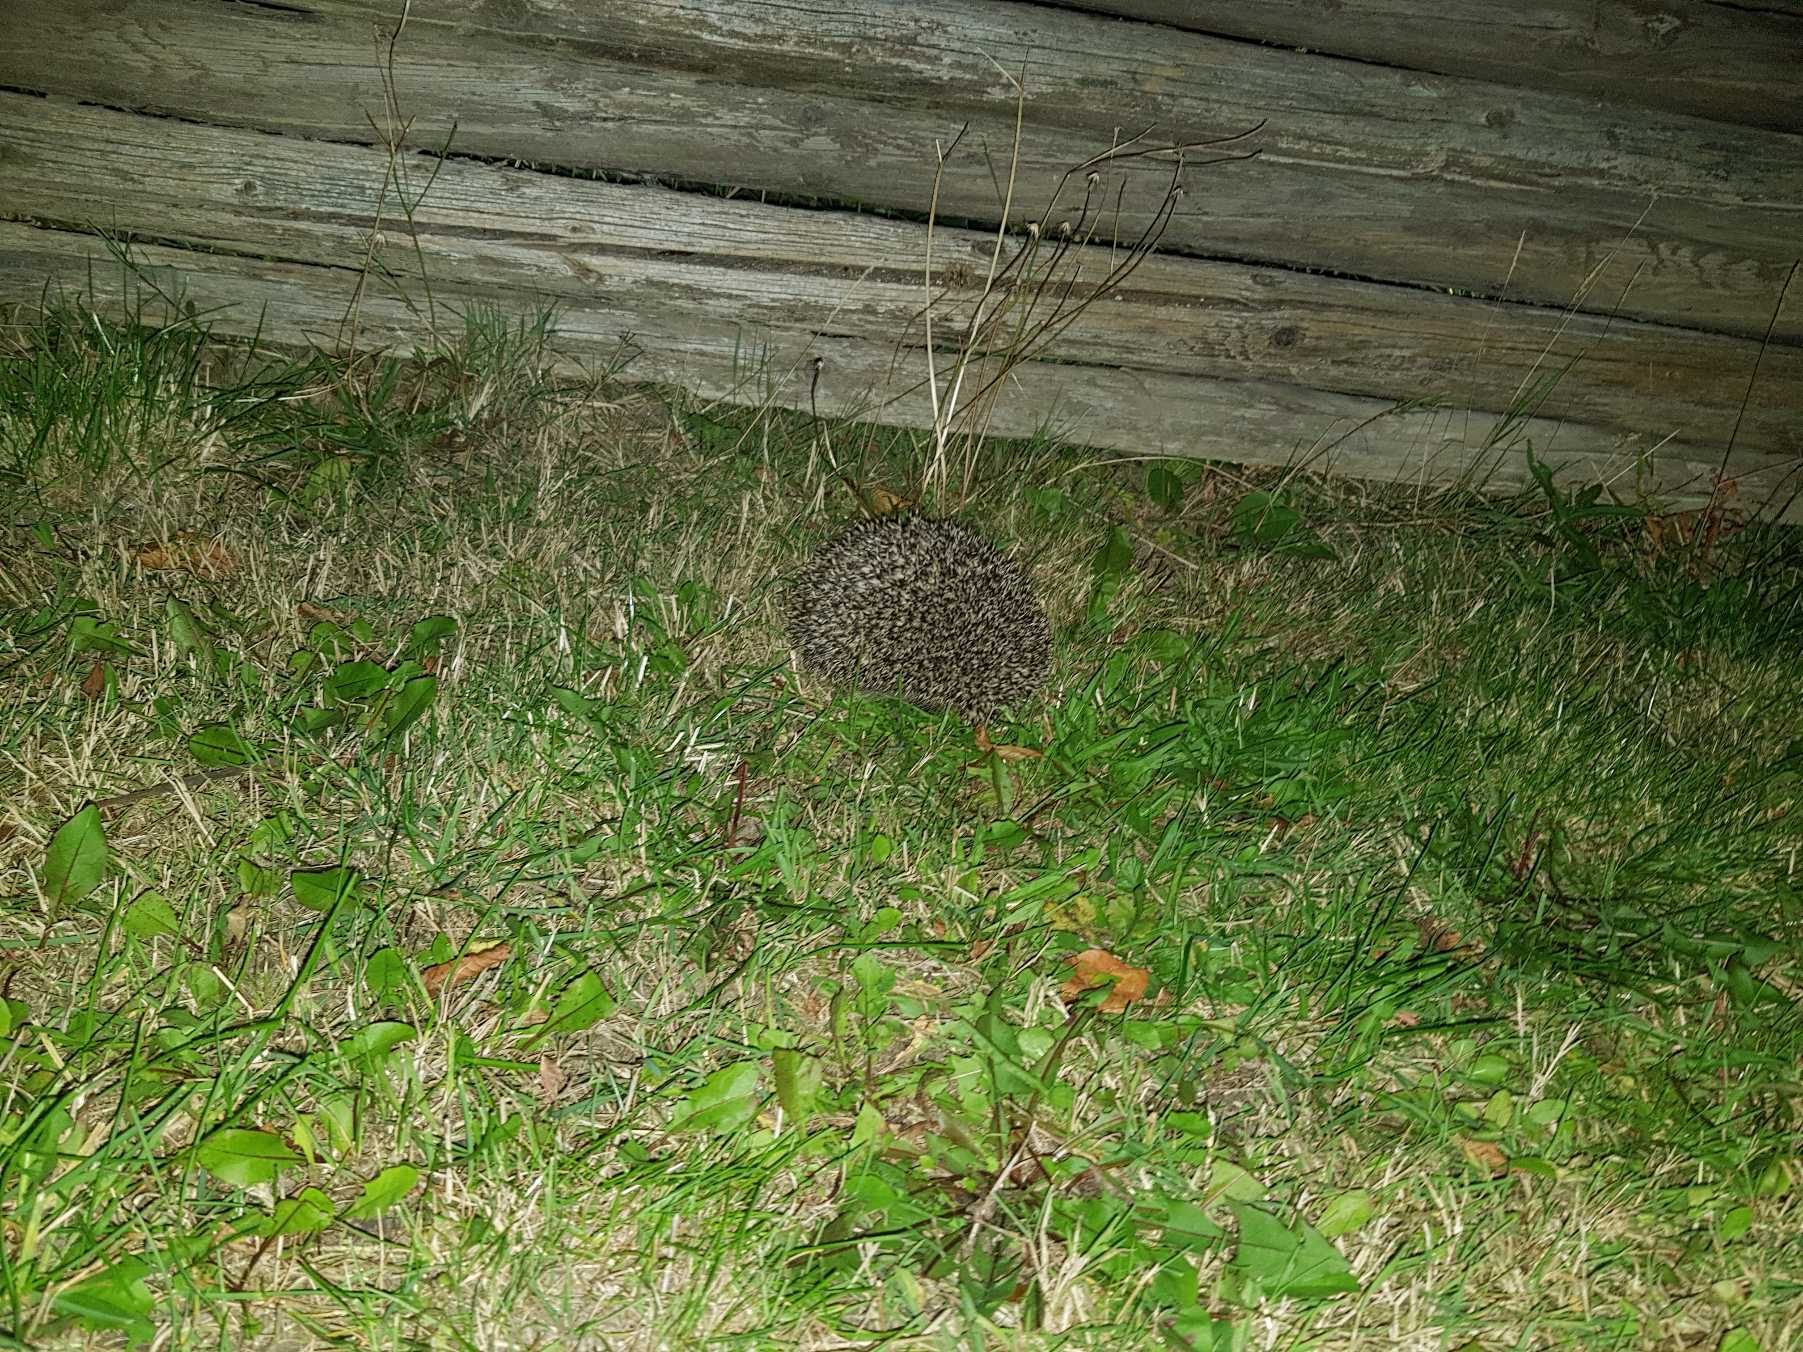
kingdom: Animalia
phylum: Chordata
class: Mammalia
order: Erinaceomorpha
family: Erinaceidae
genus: Erinaceus
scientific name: Erinaceus europaeus
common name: Pindsvin
